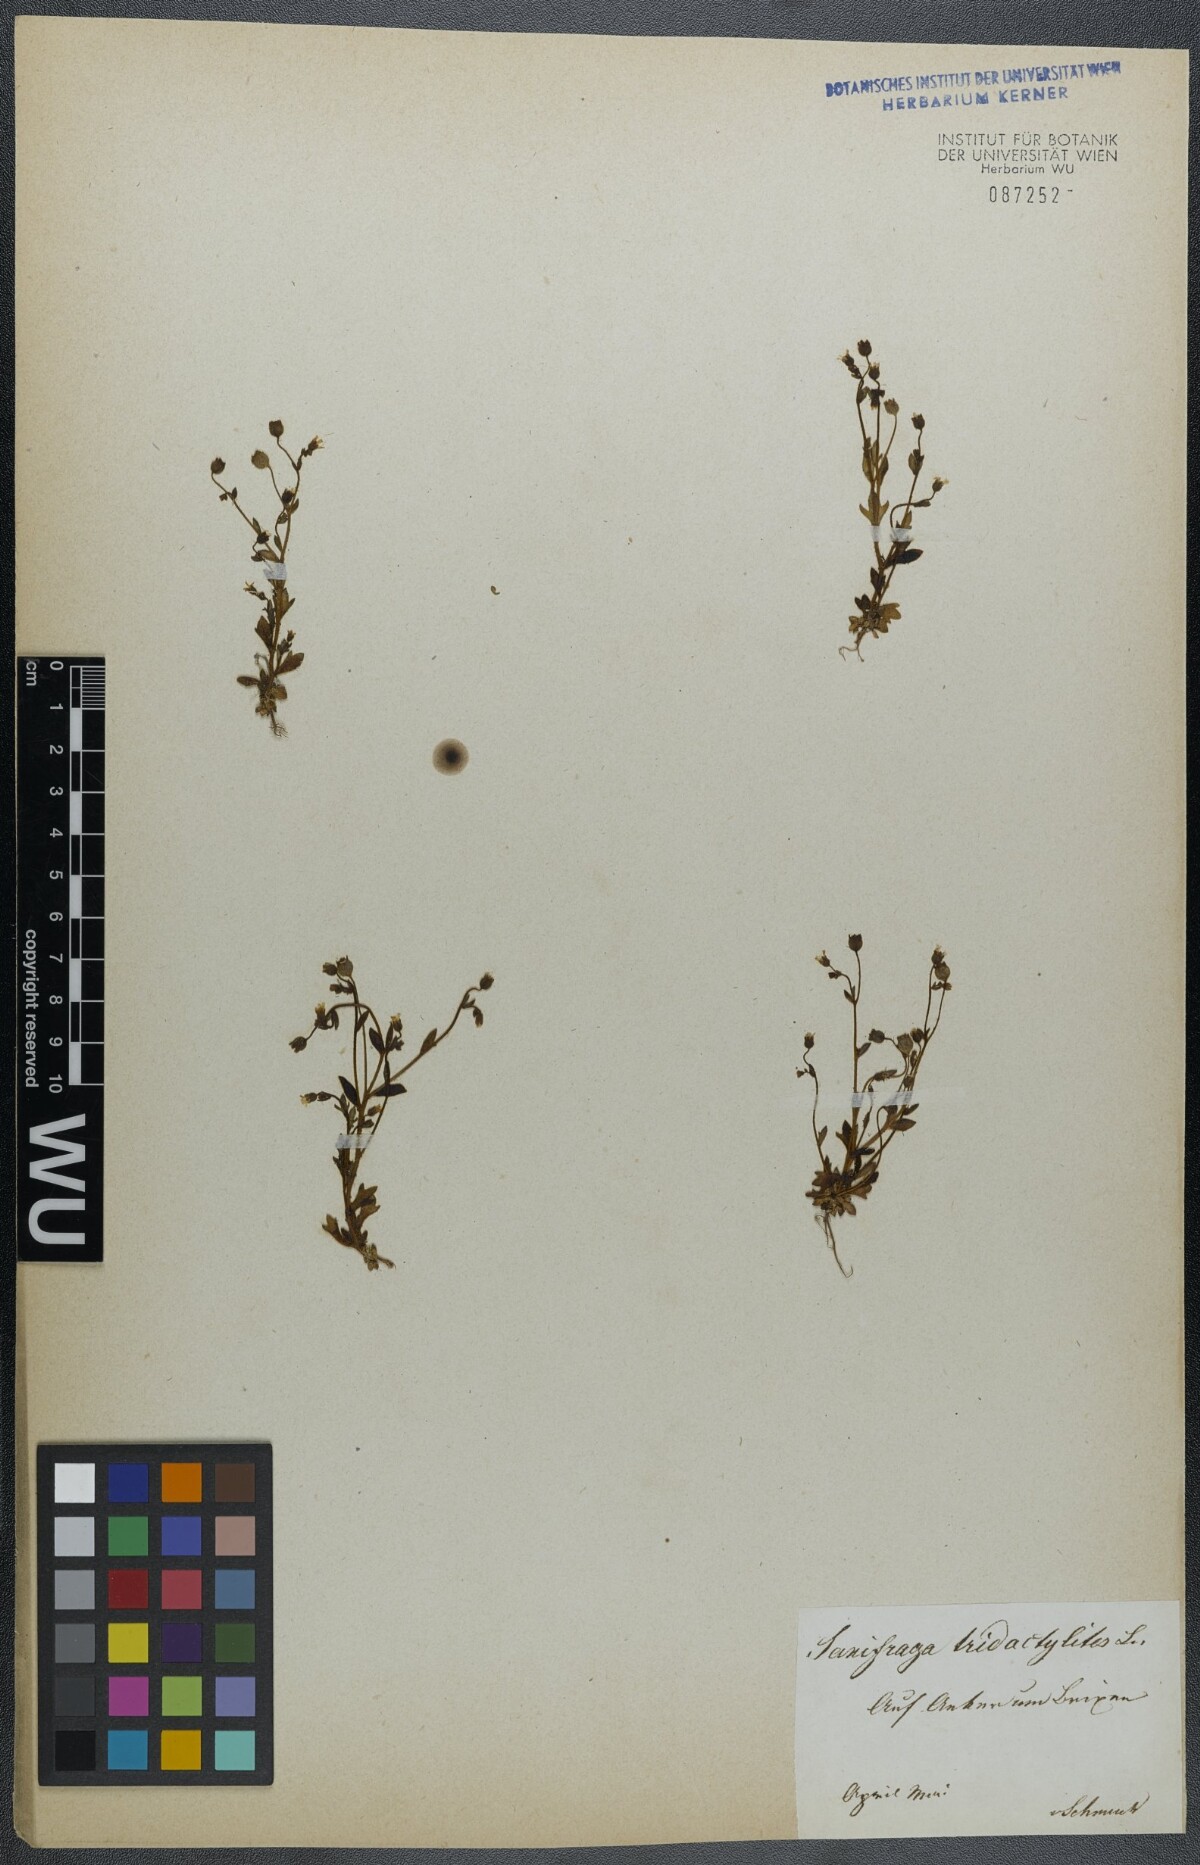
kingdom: Plantae
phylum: Tracheophyta
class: Magnoliopsida
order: Saxifragales
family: Saxifragaceae
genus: Saxifraga
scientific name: Saxifraga tridactylites
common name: Rue-leaved saxifrage
